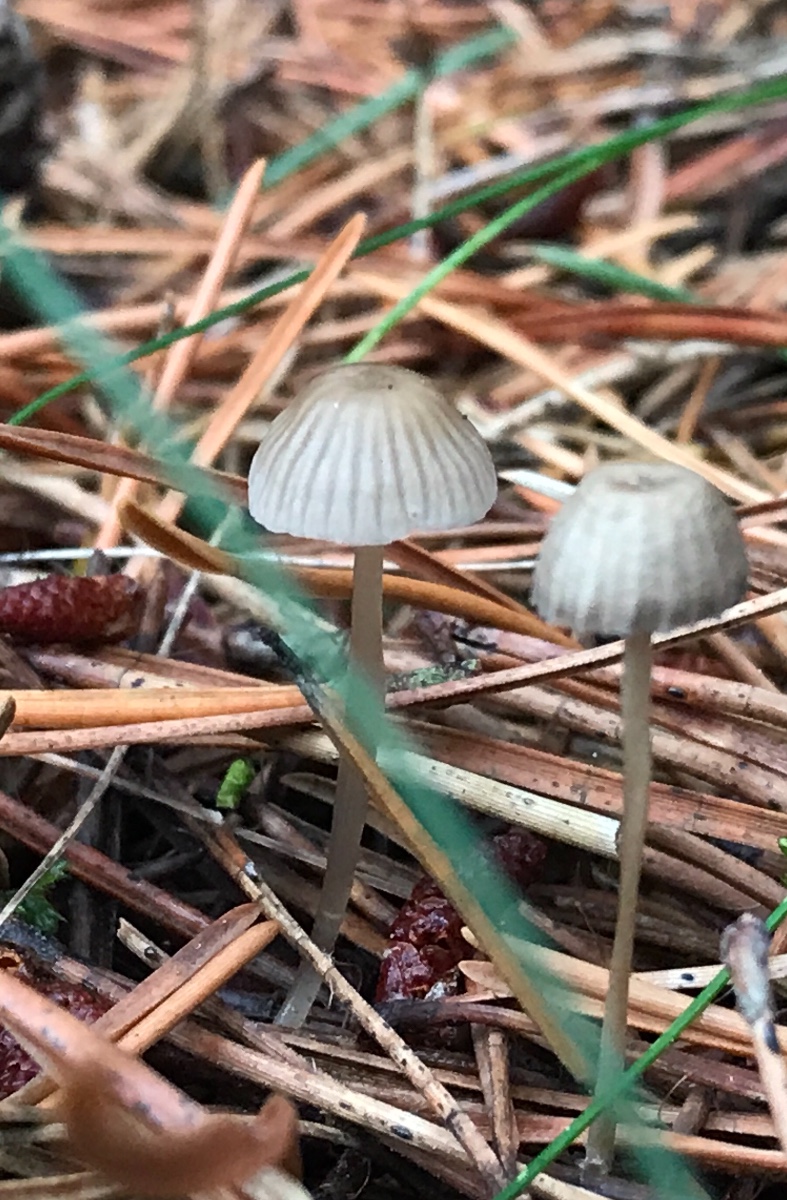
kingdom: Fungi
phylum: Basidiomycota
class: Agaricomycetes
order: Agaricales
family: Mycenaceae
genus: Mycena
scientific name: Mycena clavicularis
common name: fyrre-huesvamp
